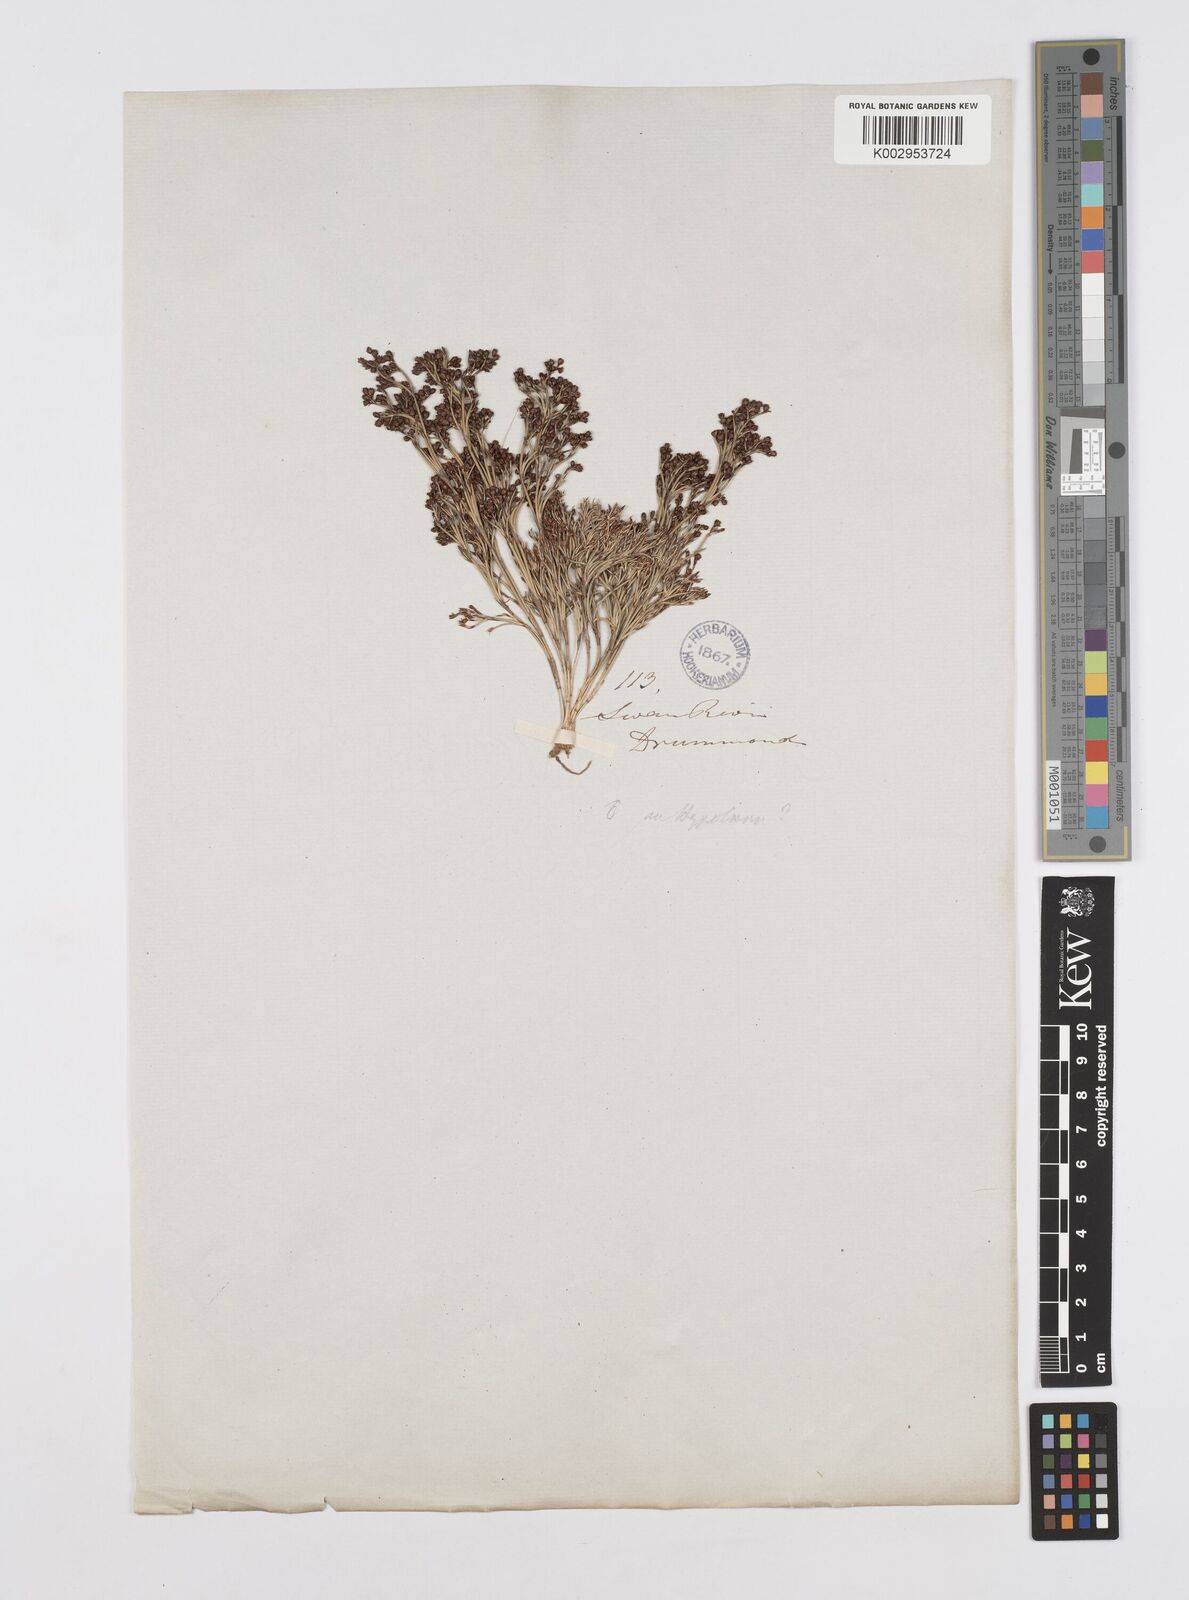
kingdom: Plantae
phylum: Tracheophyta
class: Liliopsida
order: Poales
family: Restionaceae
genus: Hypolaena
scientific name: Hypolaena exsulca
